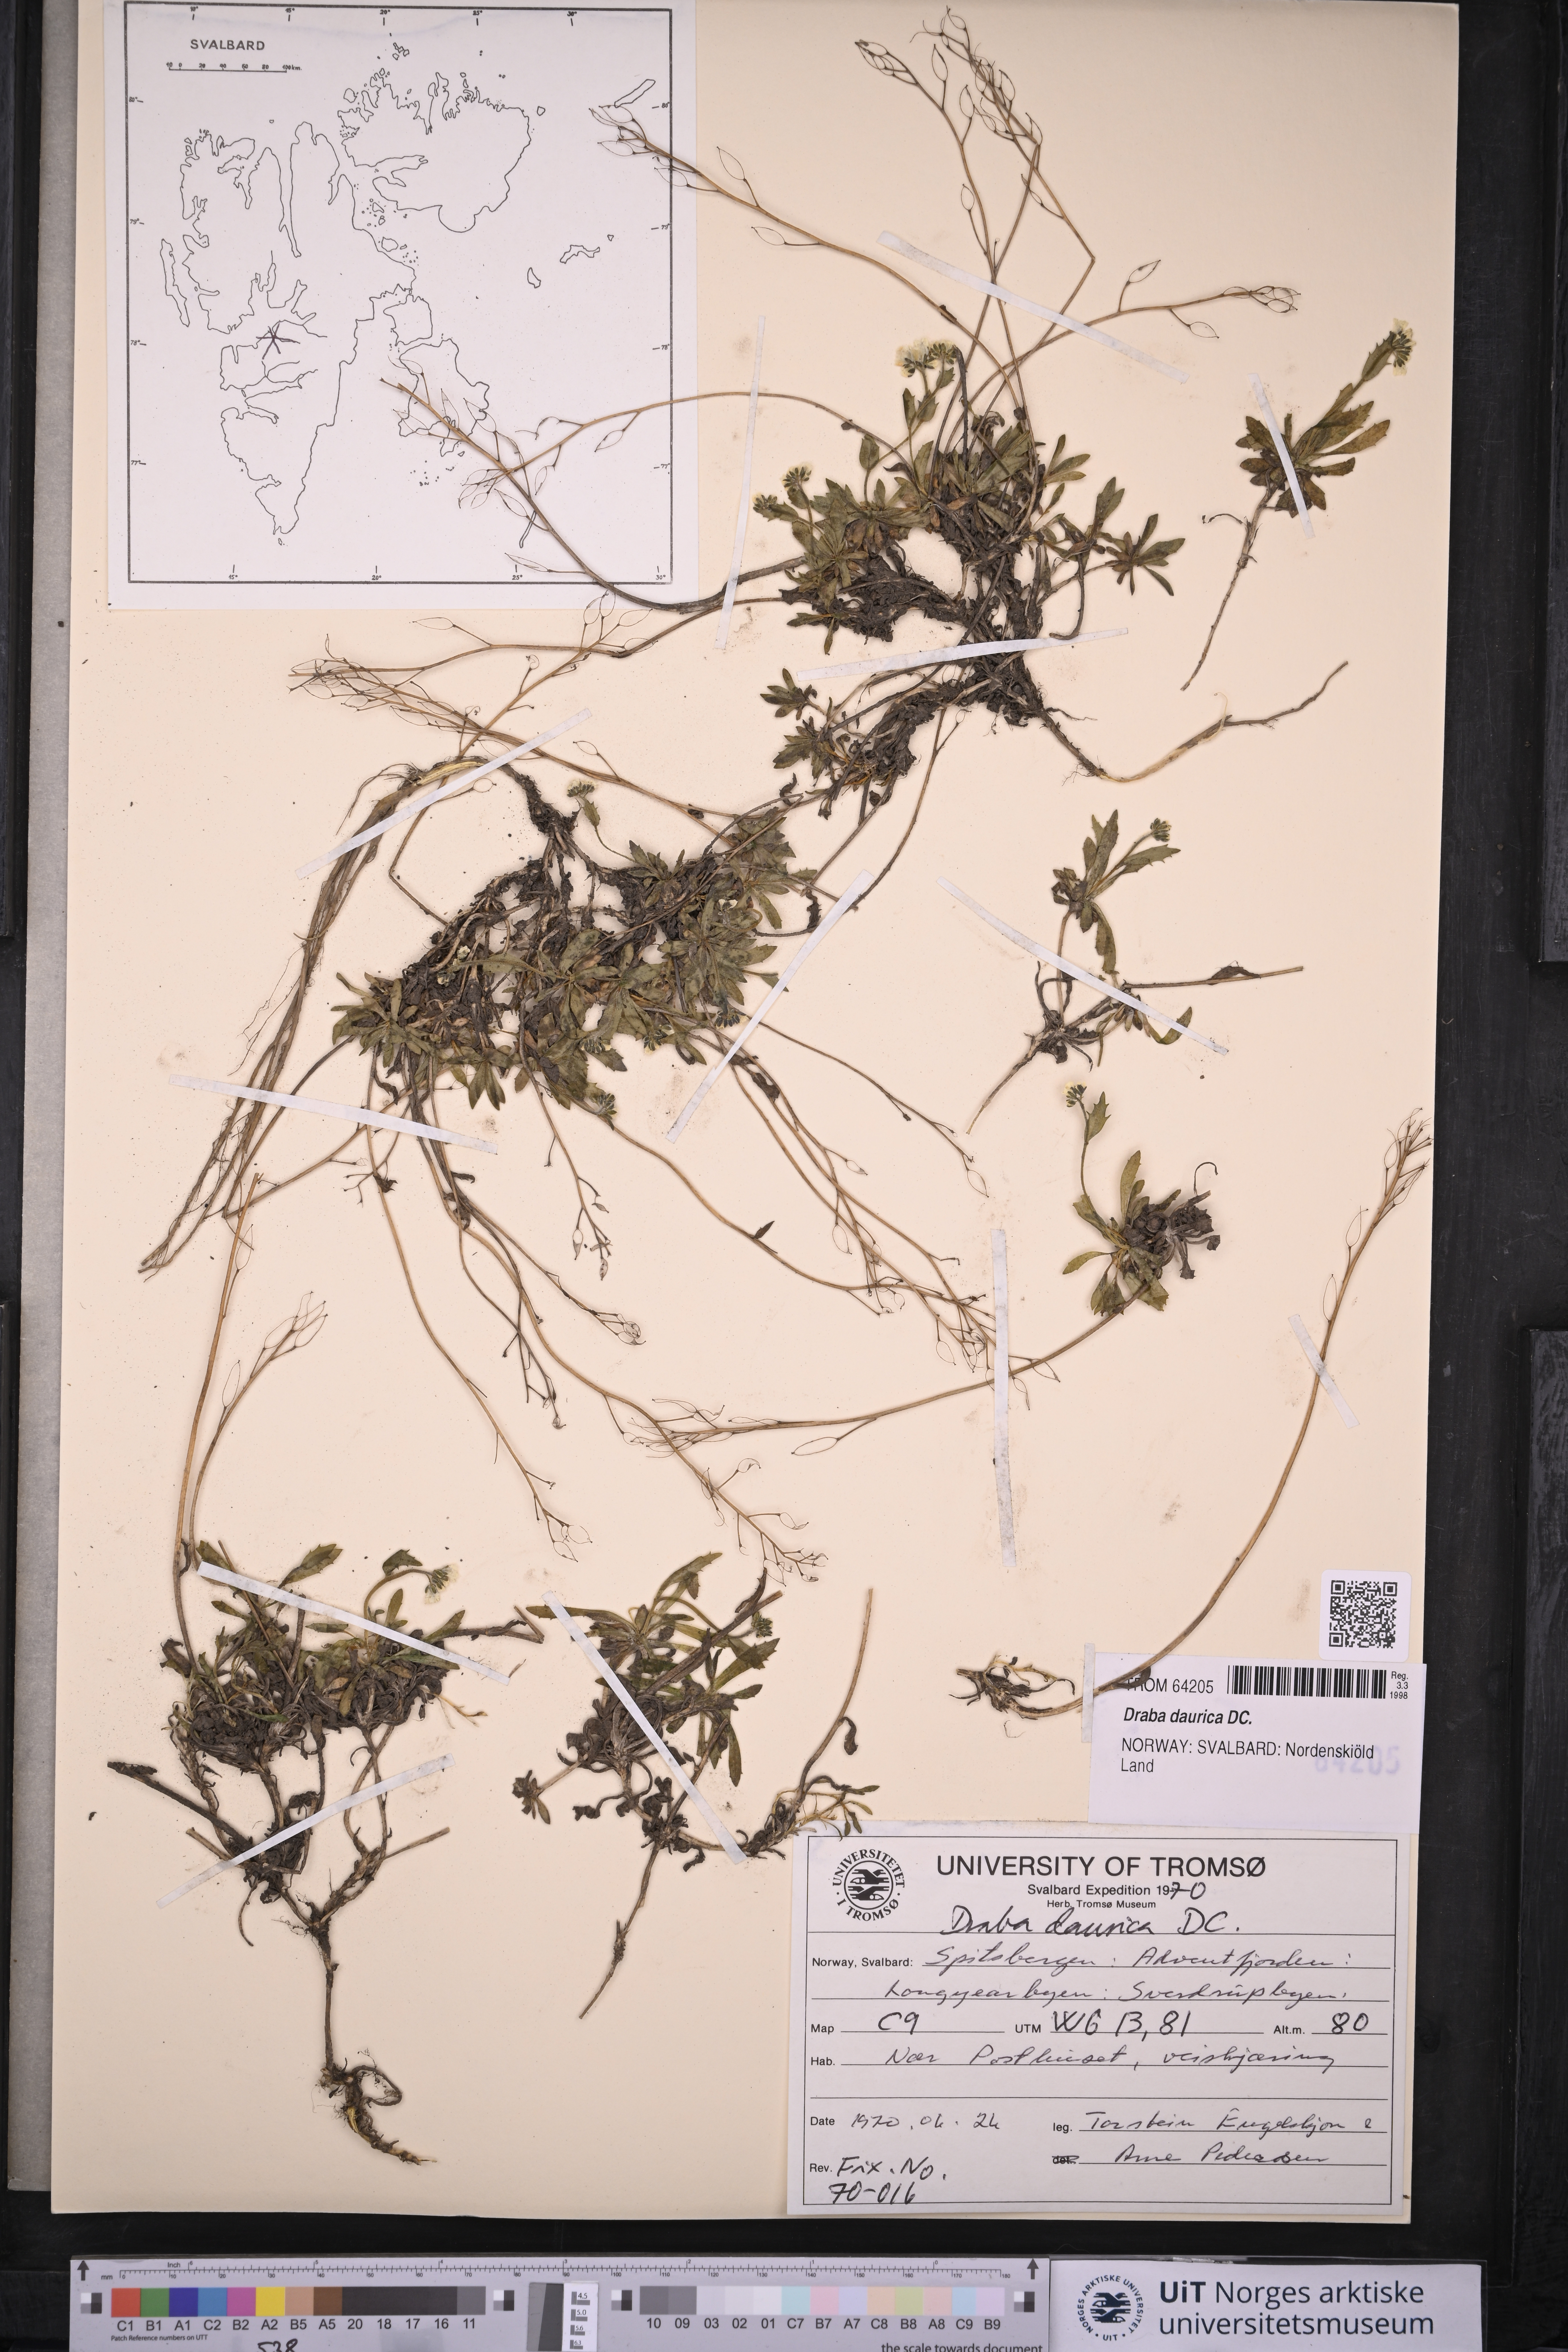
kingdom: Plantae
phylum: Tracheophyta
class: Magnoliopsida
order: Brassicales
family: Brassicaceae
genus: Draba
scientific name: Draba glabella
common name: Glaucous draba
